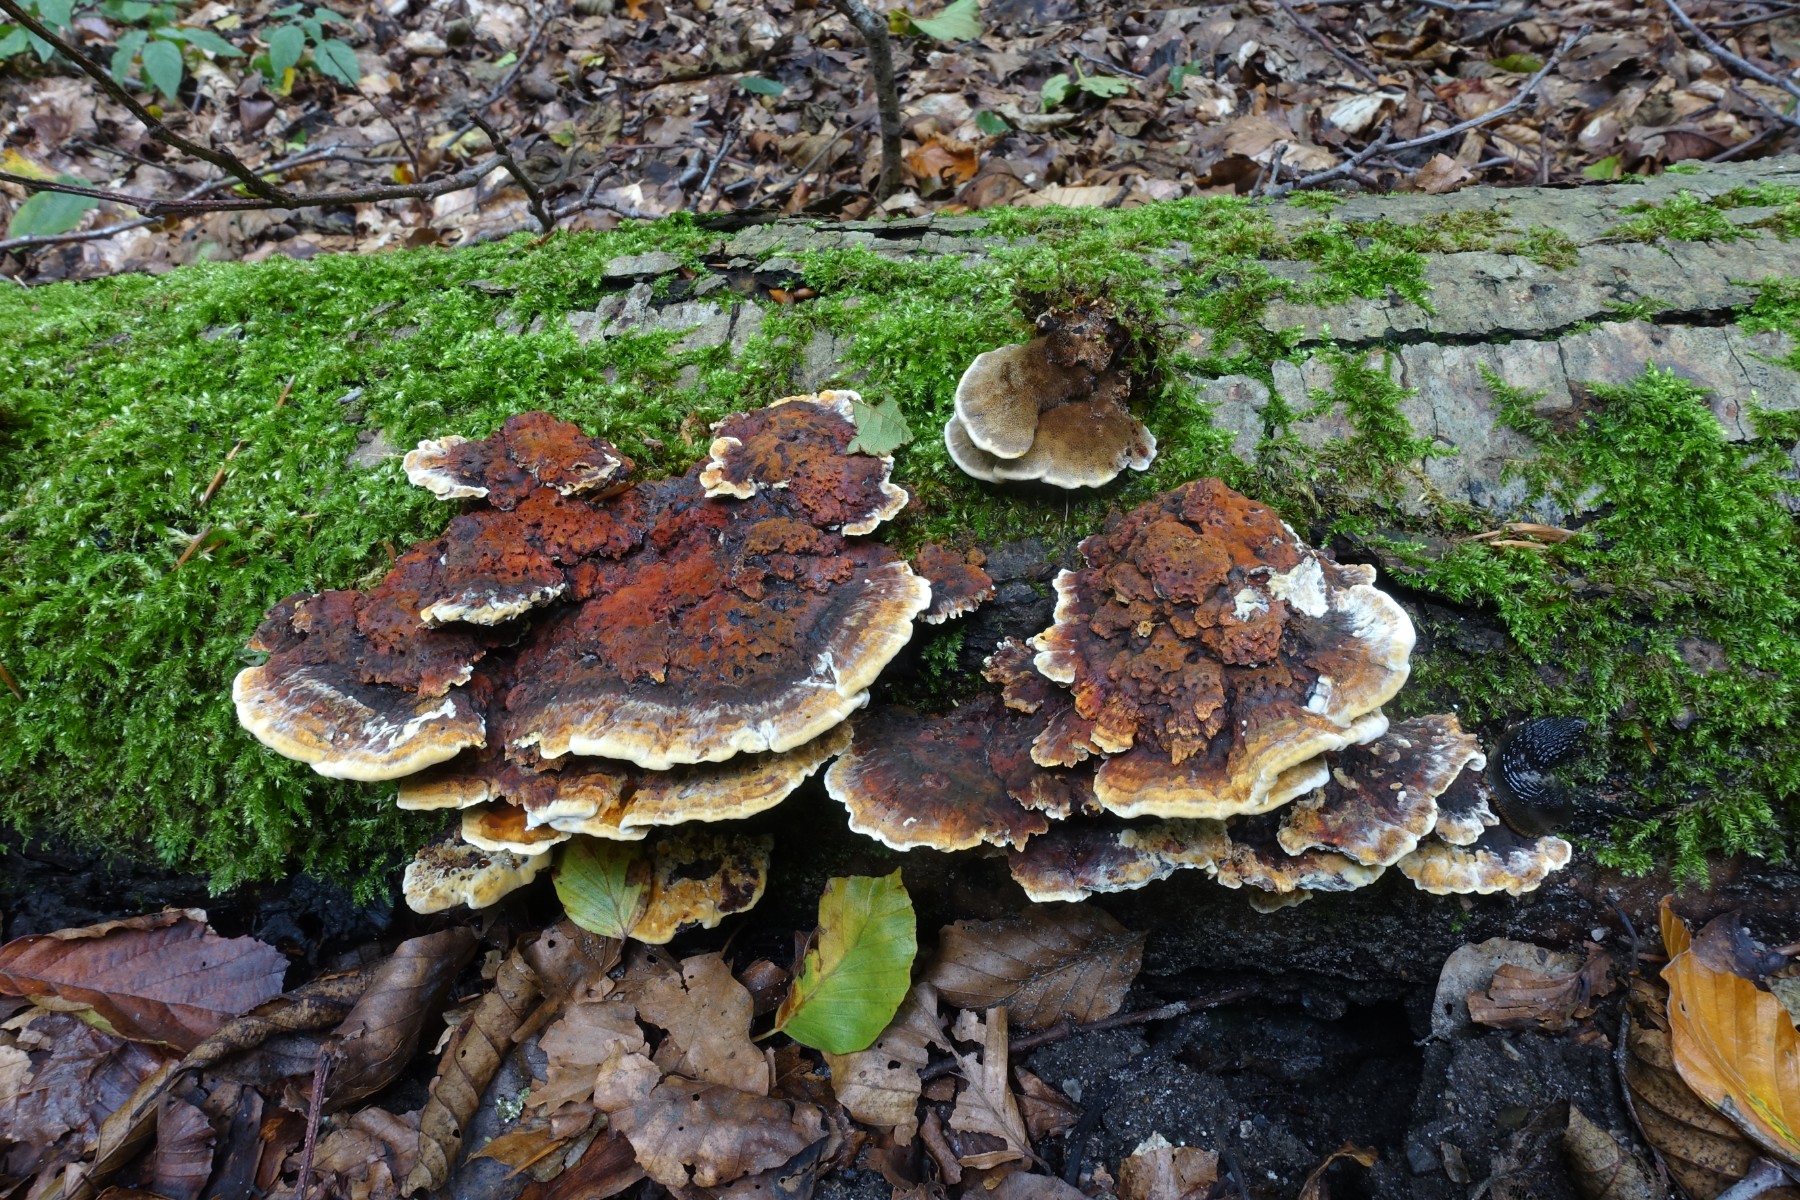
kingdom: Fungi
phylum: Basidiomycota
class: Agaricomycetes
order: Hymenochaetales
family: Hymenochaetaceae
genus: Xanthoporia
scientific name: Xanthoporia radiata
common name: elle-spejlporesvamp
